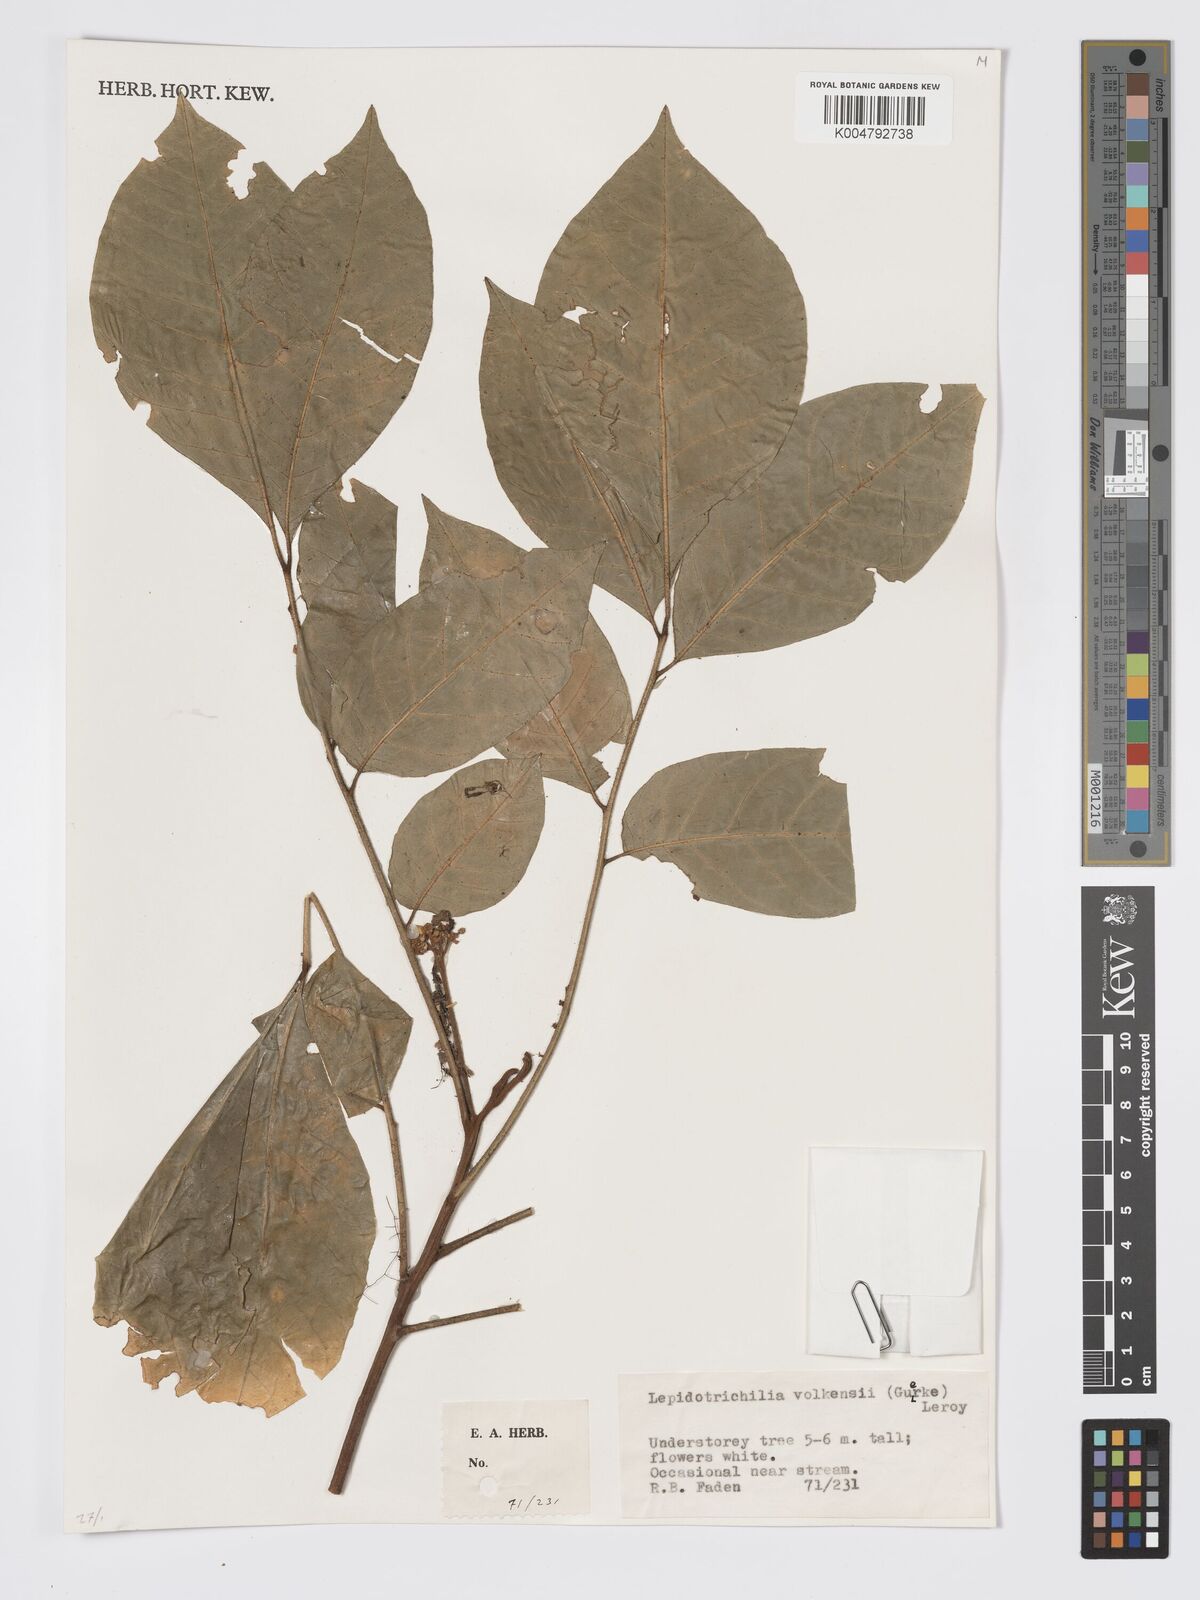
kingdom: Plantae
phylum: Tracheophyta
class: Magnoliopsida
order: Sapindales
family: Meliaceae
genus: Lepidotrichilia
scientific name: Lepidotrichilia volkensii
